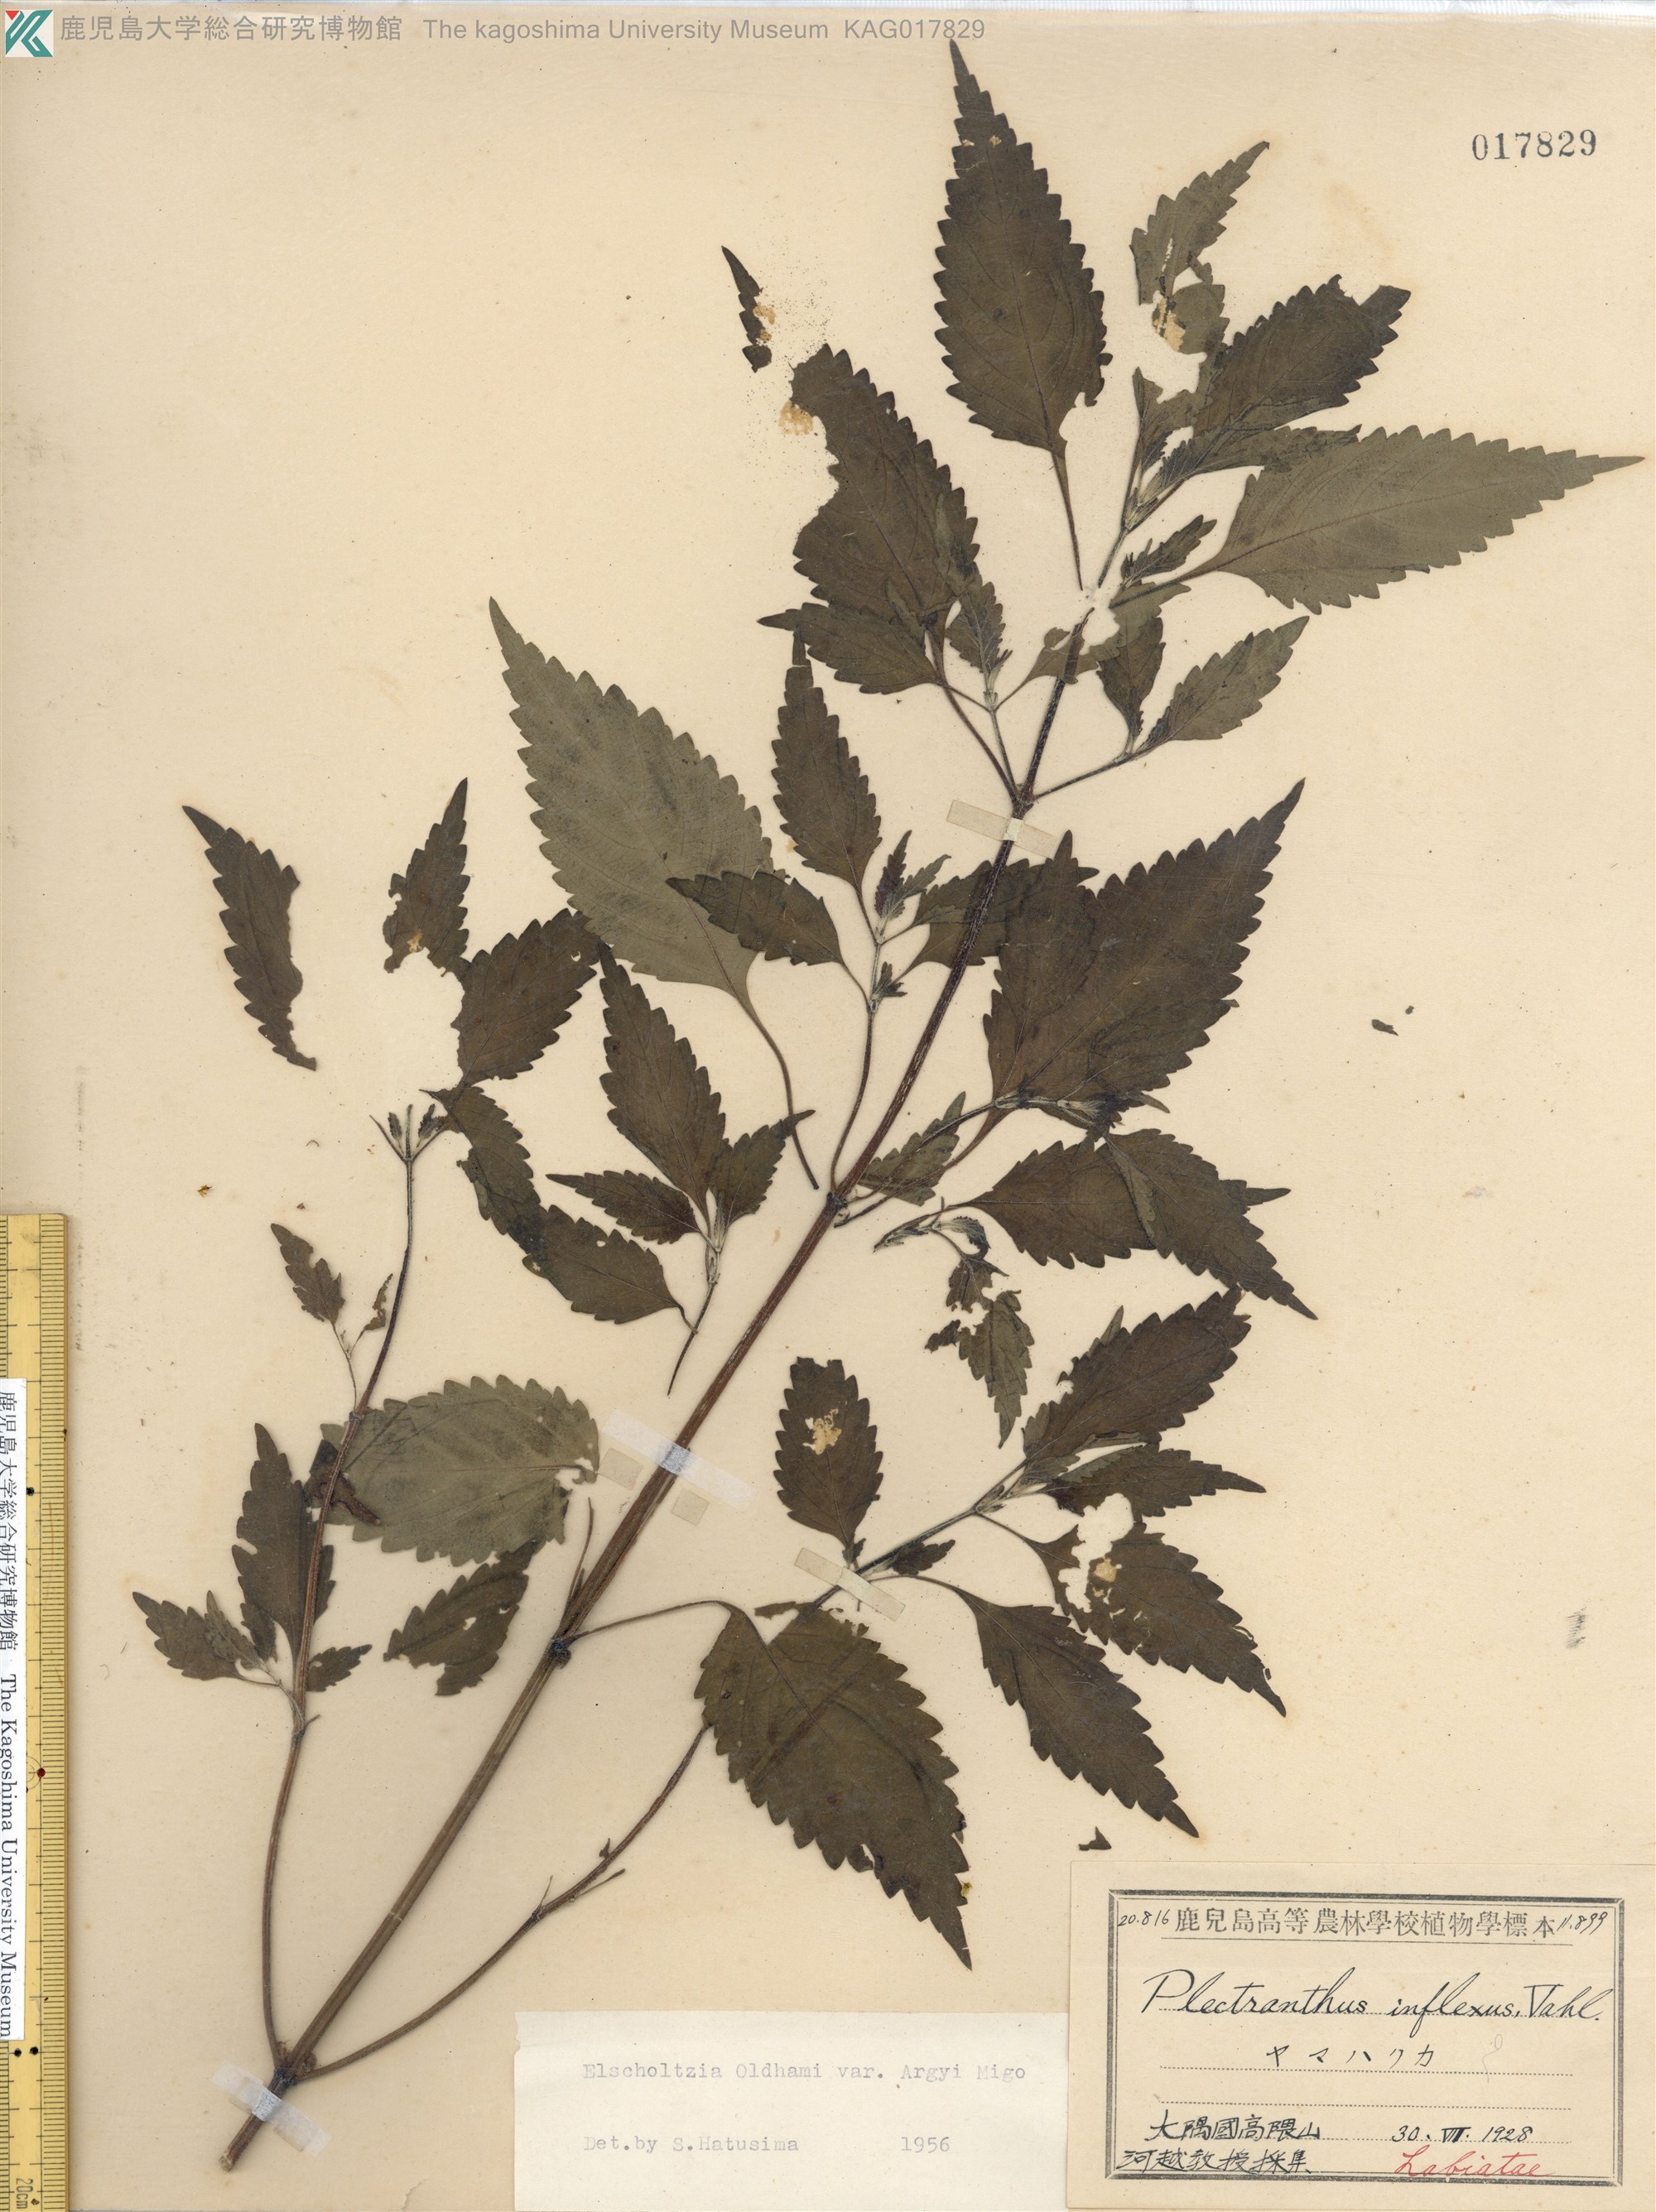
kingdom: Plantae
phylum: Tracheophyta
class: Magnoliopsida
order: Lamiales
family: Lamiaceae
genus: Elsholtzia
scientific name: Elsholtzia nipponica
